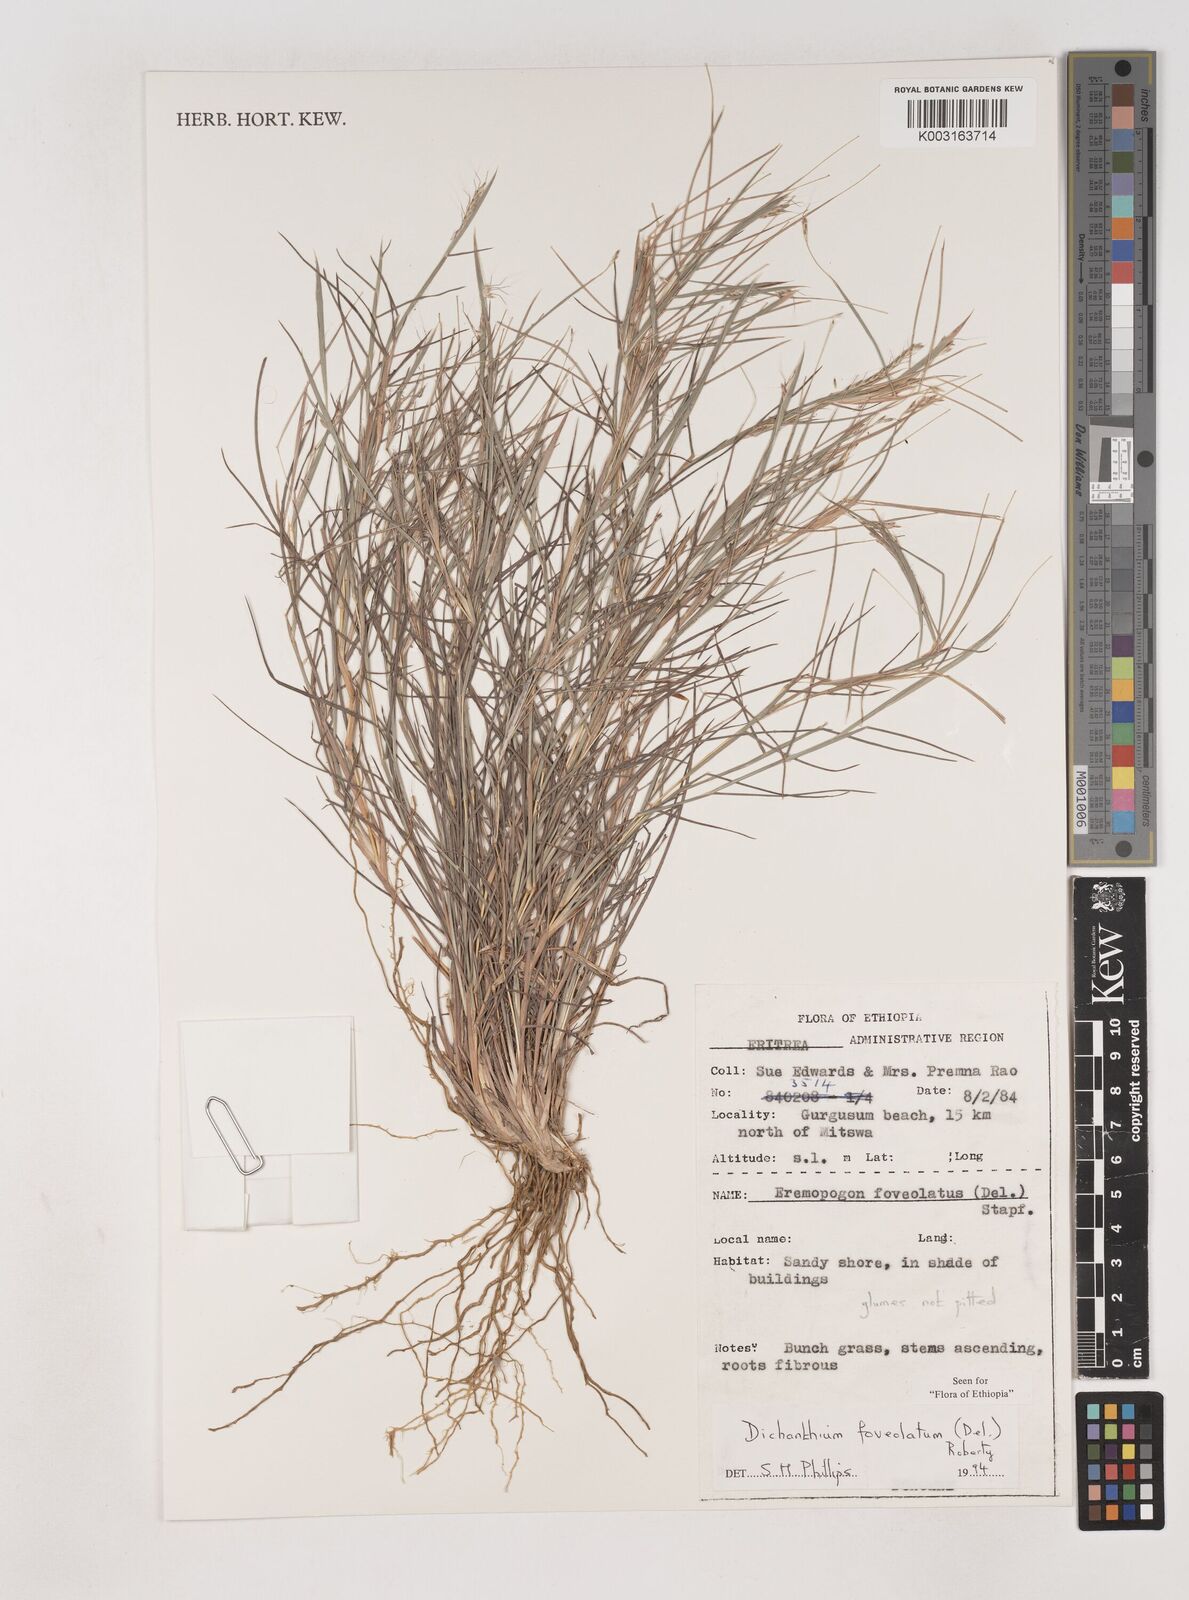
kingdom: Plantae
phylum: Tracheophyta
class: Liliopsida
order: Poales
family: Poaceae
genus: Dichanthium
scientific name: Dichanthium foveolatum
